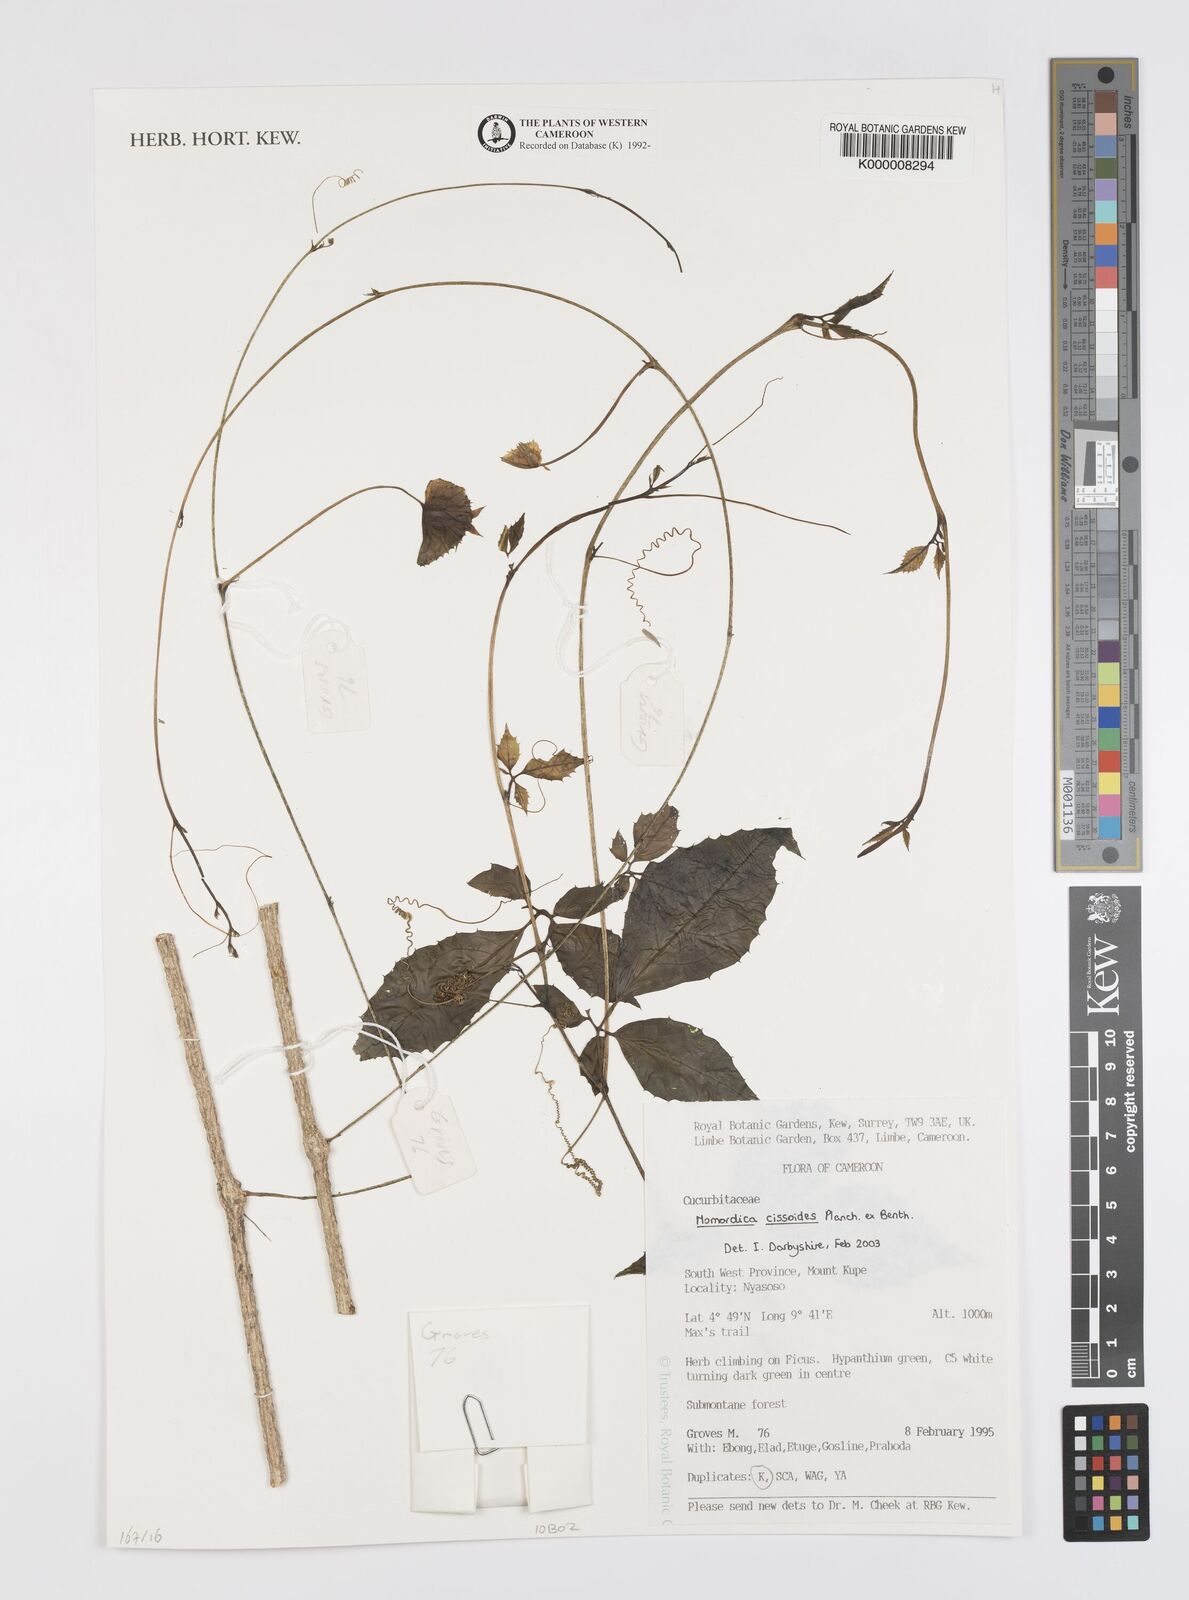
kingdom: Plantae
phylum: Tracheophyta
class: Magnoliopsida
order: Cucurbitales
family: Cucurbitaceae
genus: Momordica
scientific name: Momordica cissoides
